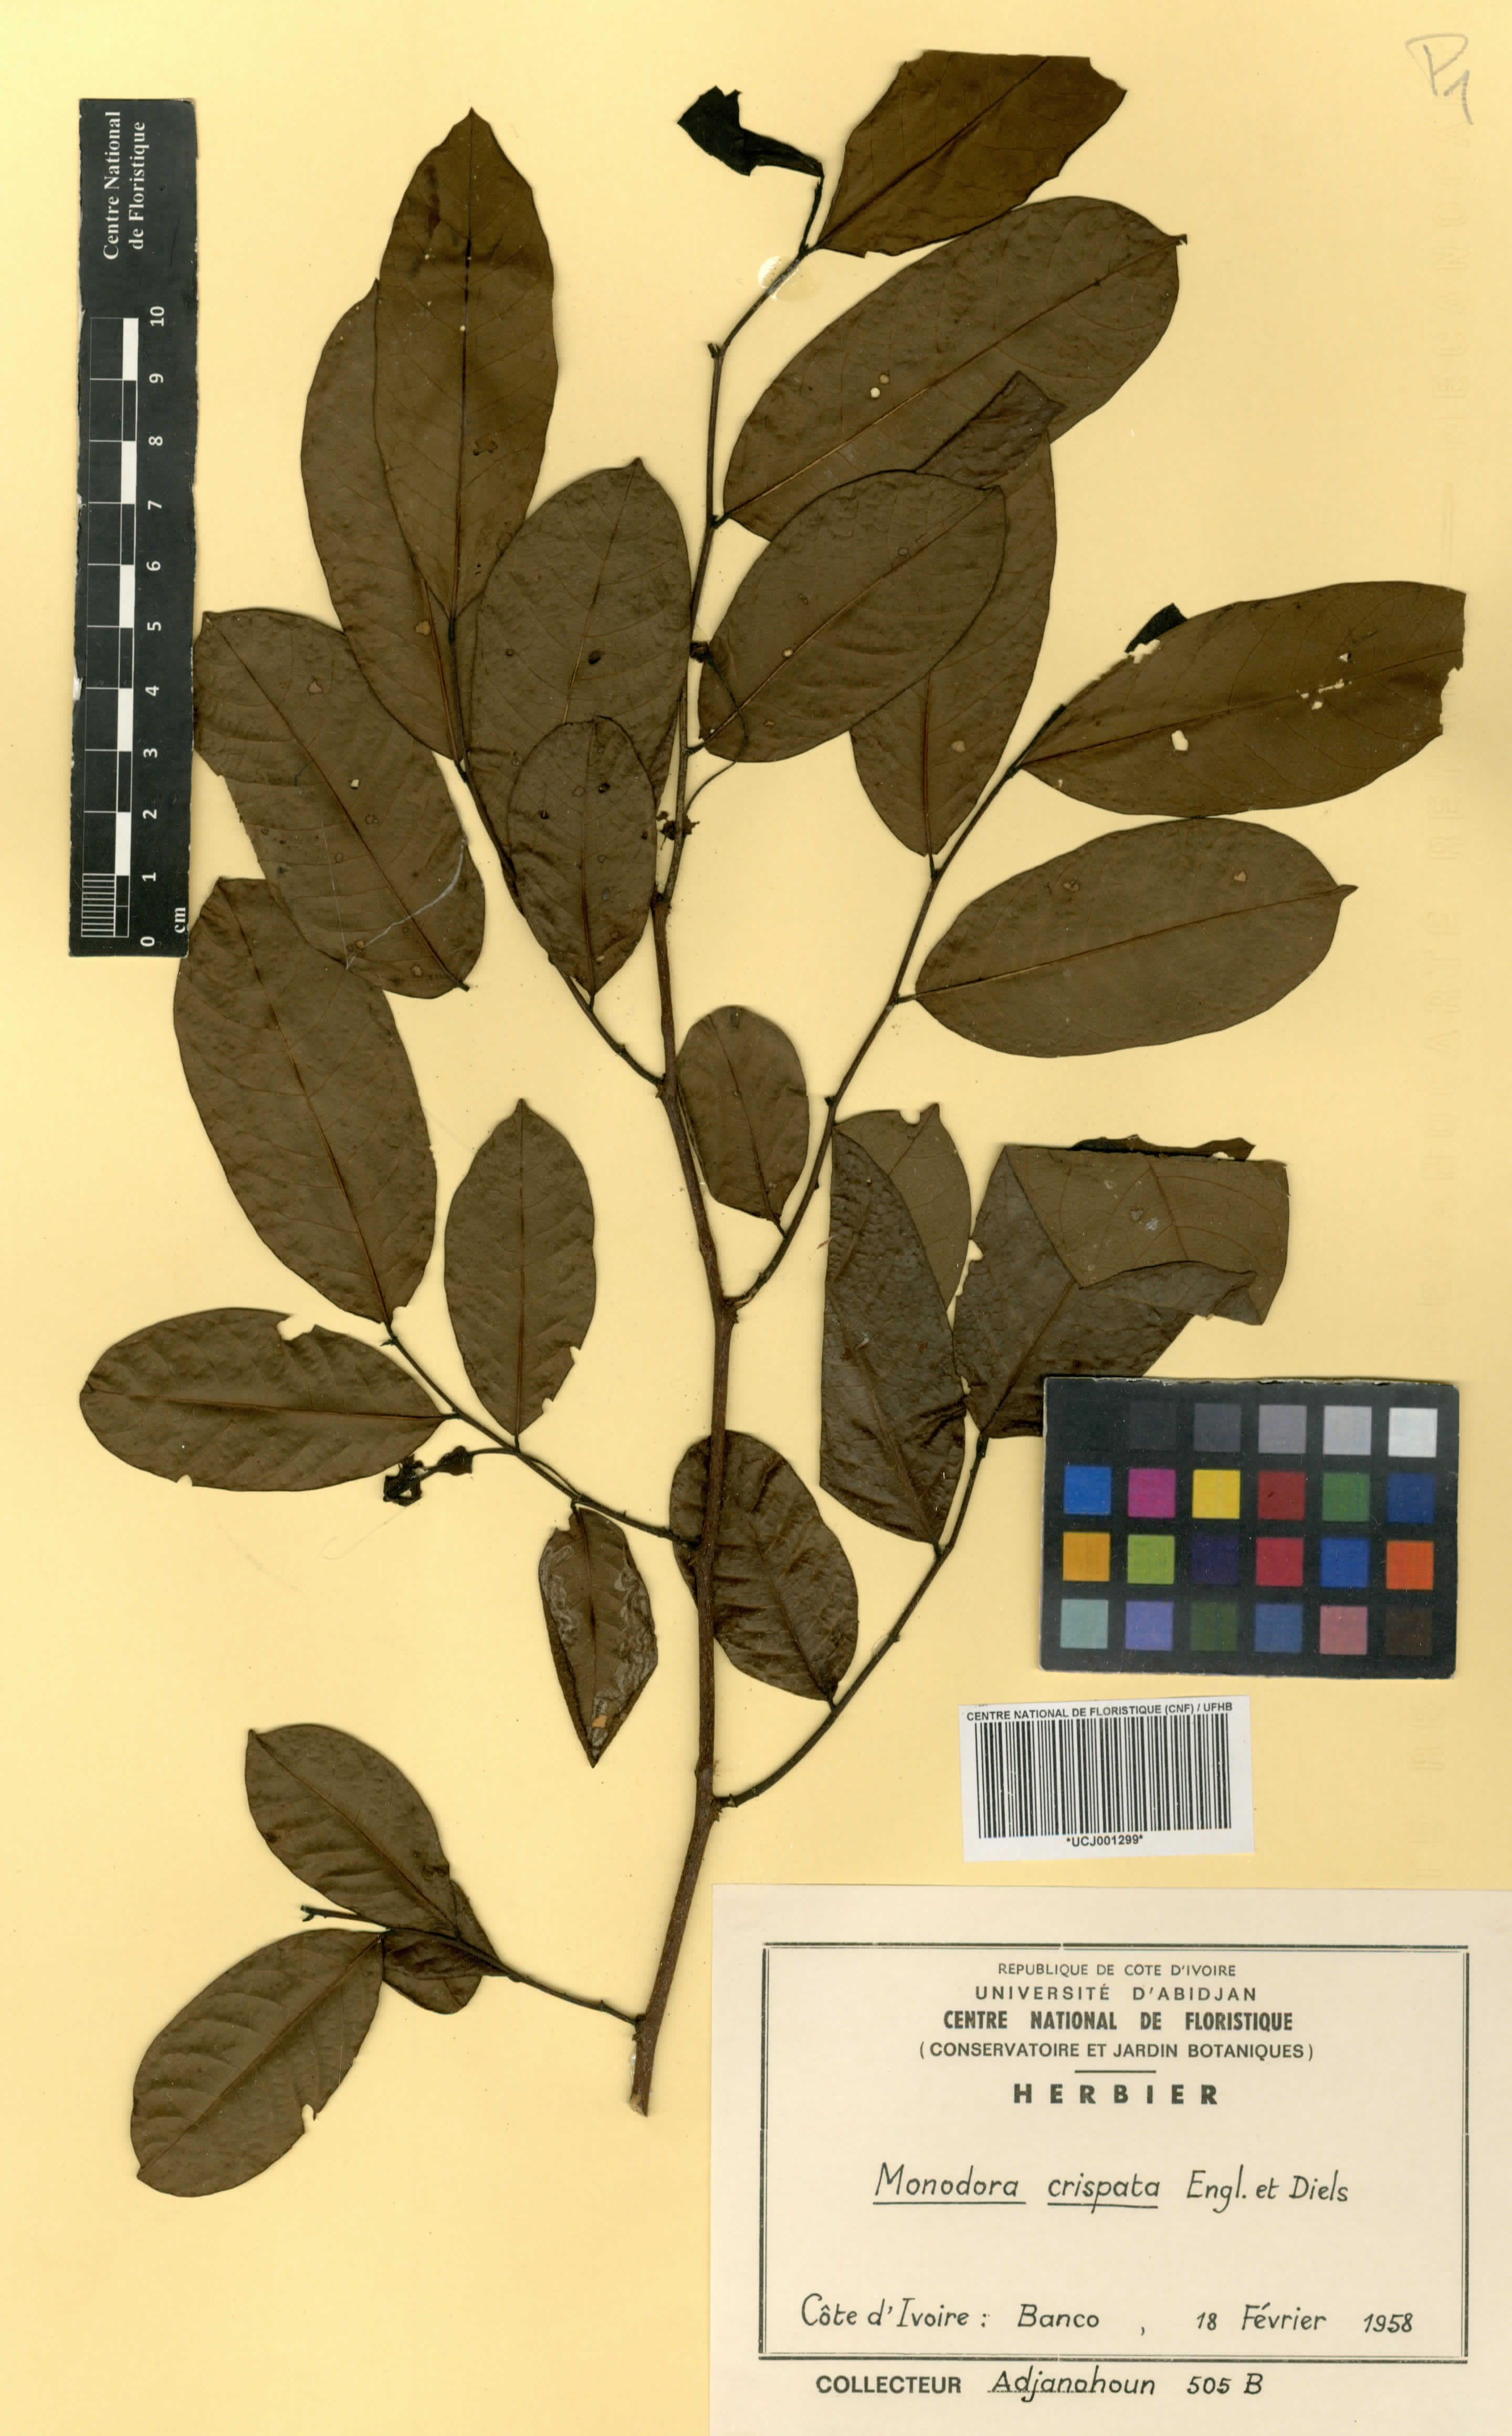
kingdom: Plantae
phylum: Tracheophyta
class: Magnoliopsida
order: Magnoliales
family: Annonaceae
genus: Monodora
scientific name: Monodora crispata
